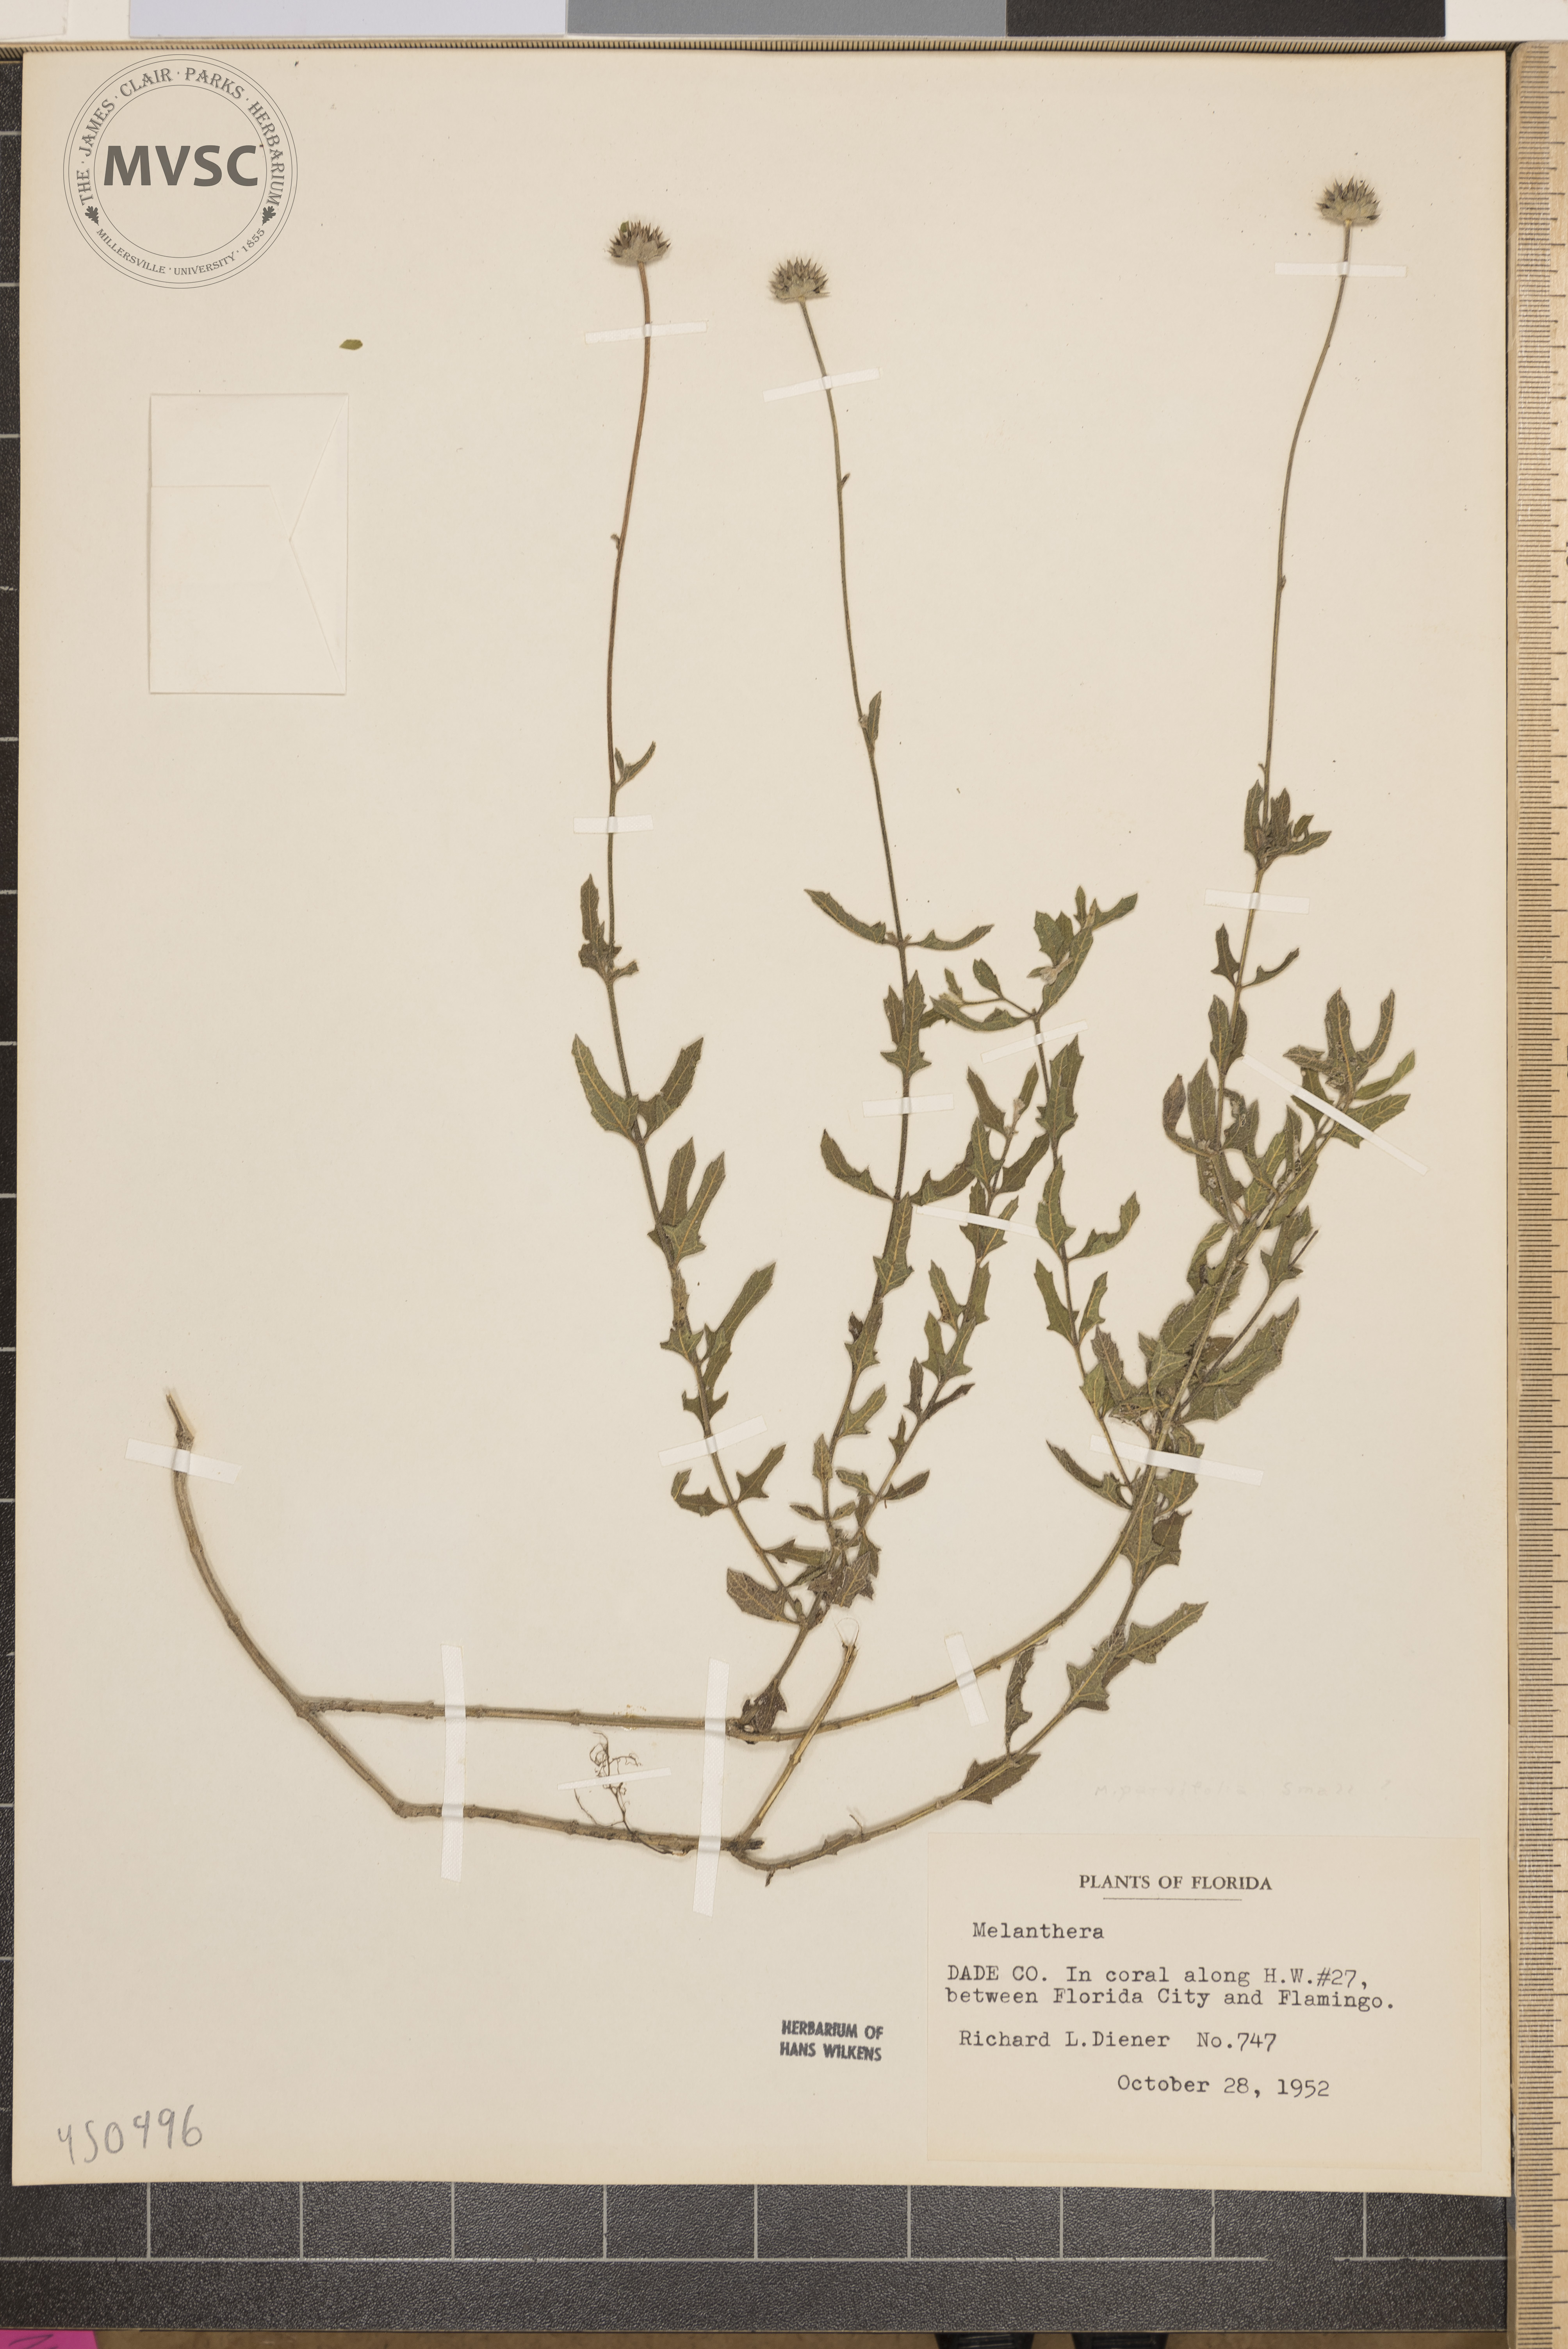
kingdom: Plantae
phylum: Tracheophyta
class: Magnoliopsida
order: Asterales
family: Asteraceae
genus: Melanthera
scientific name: Melanthera parvifolia
